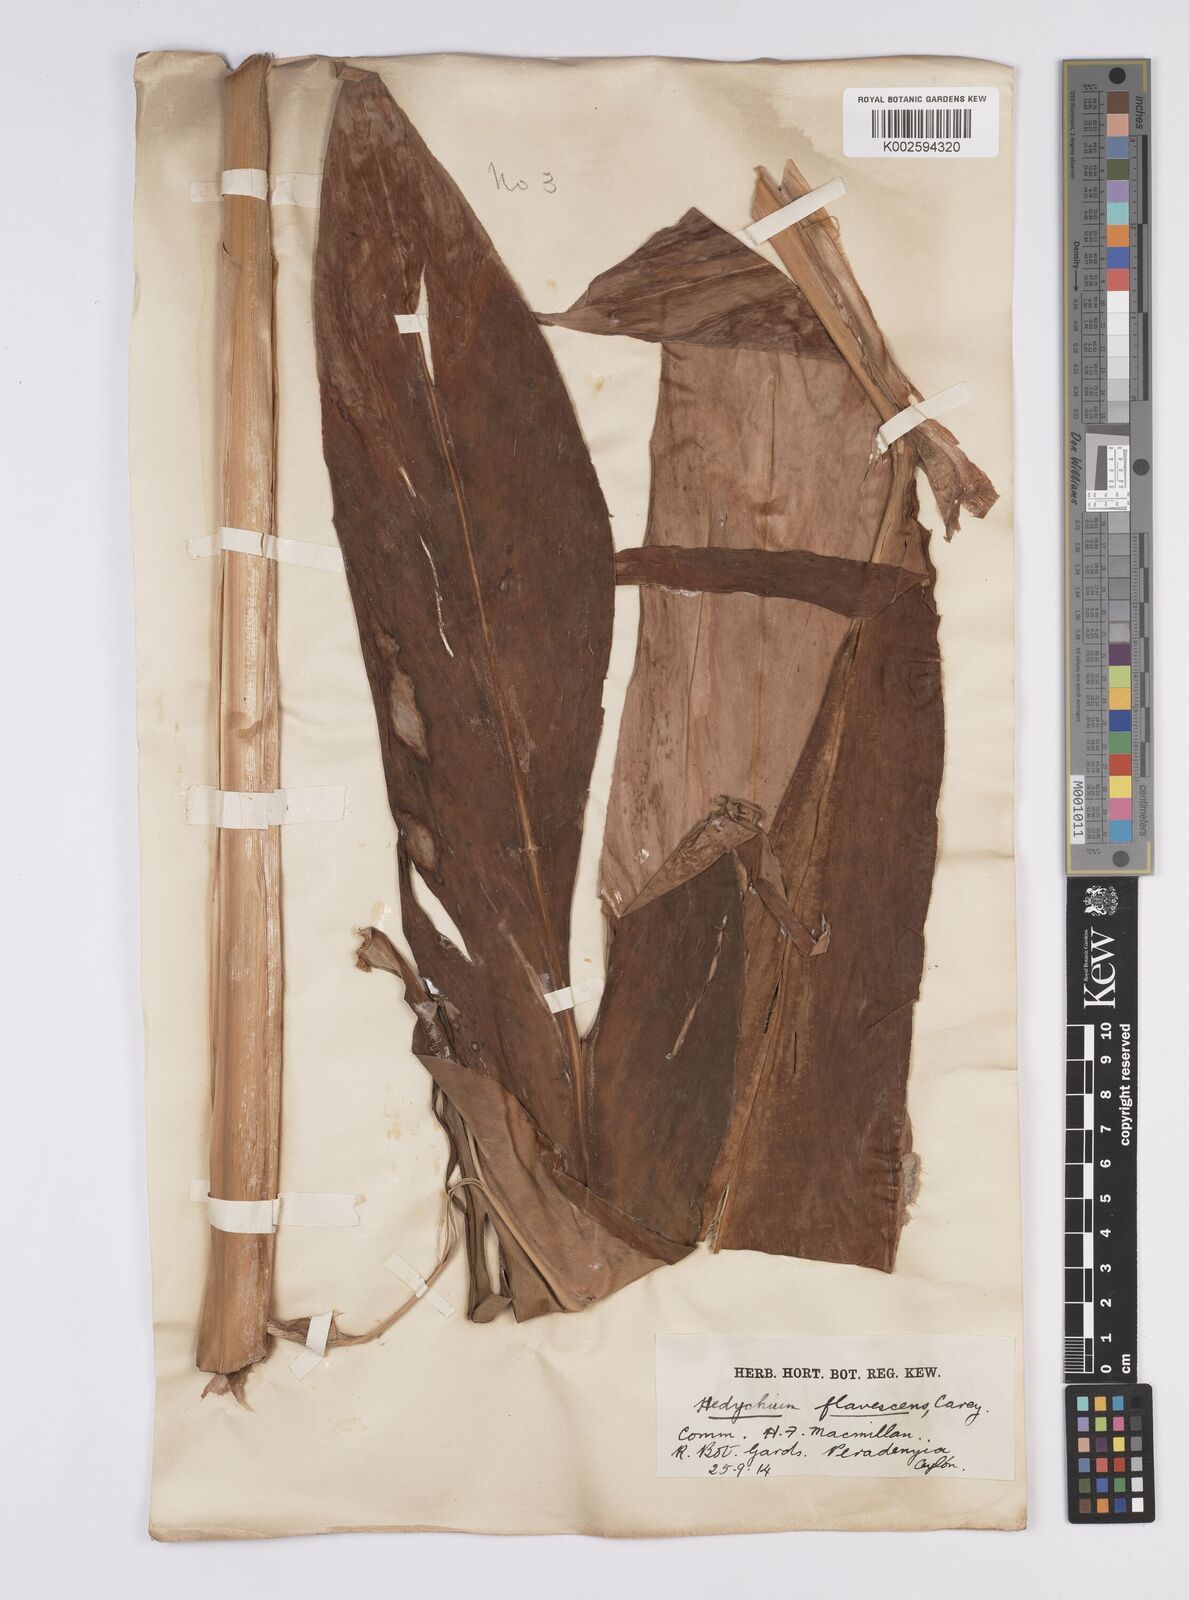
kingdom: Plantae
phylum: Tracheophyta
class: Liliopsida
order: Zingiberales
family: Zingiberaceae
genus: Hedychium
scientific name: Hedychium flavescens
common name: Yellow ginger
